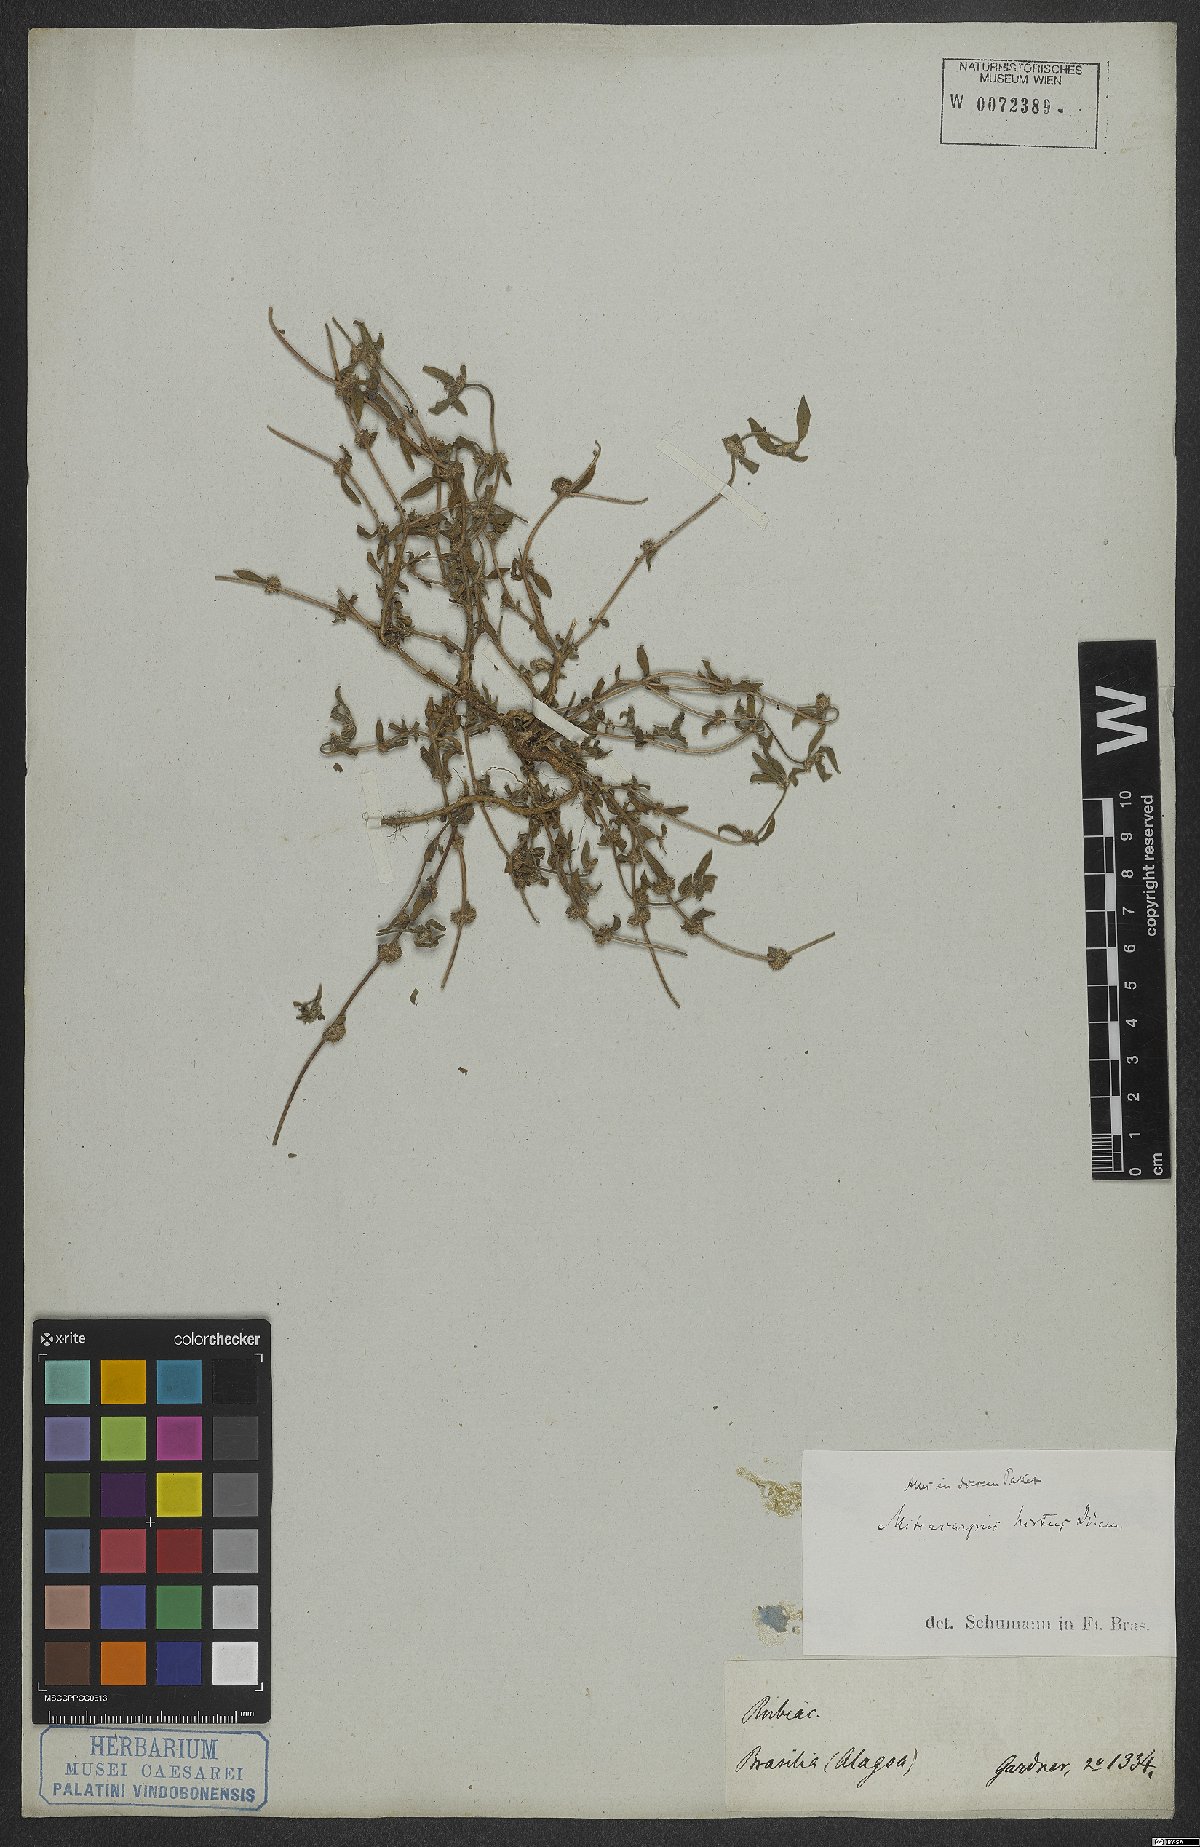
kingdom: Plantae
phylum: Tracheophyta
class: Magnoliopsida
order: Gentianales
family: Rubiaceae
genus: Mitracarpus
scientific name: Mitracarpus hirtus
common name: Tropical girdlepod
